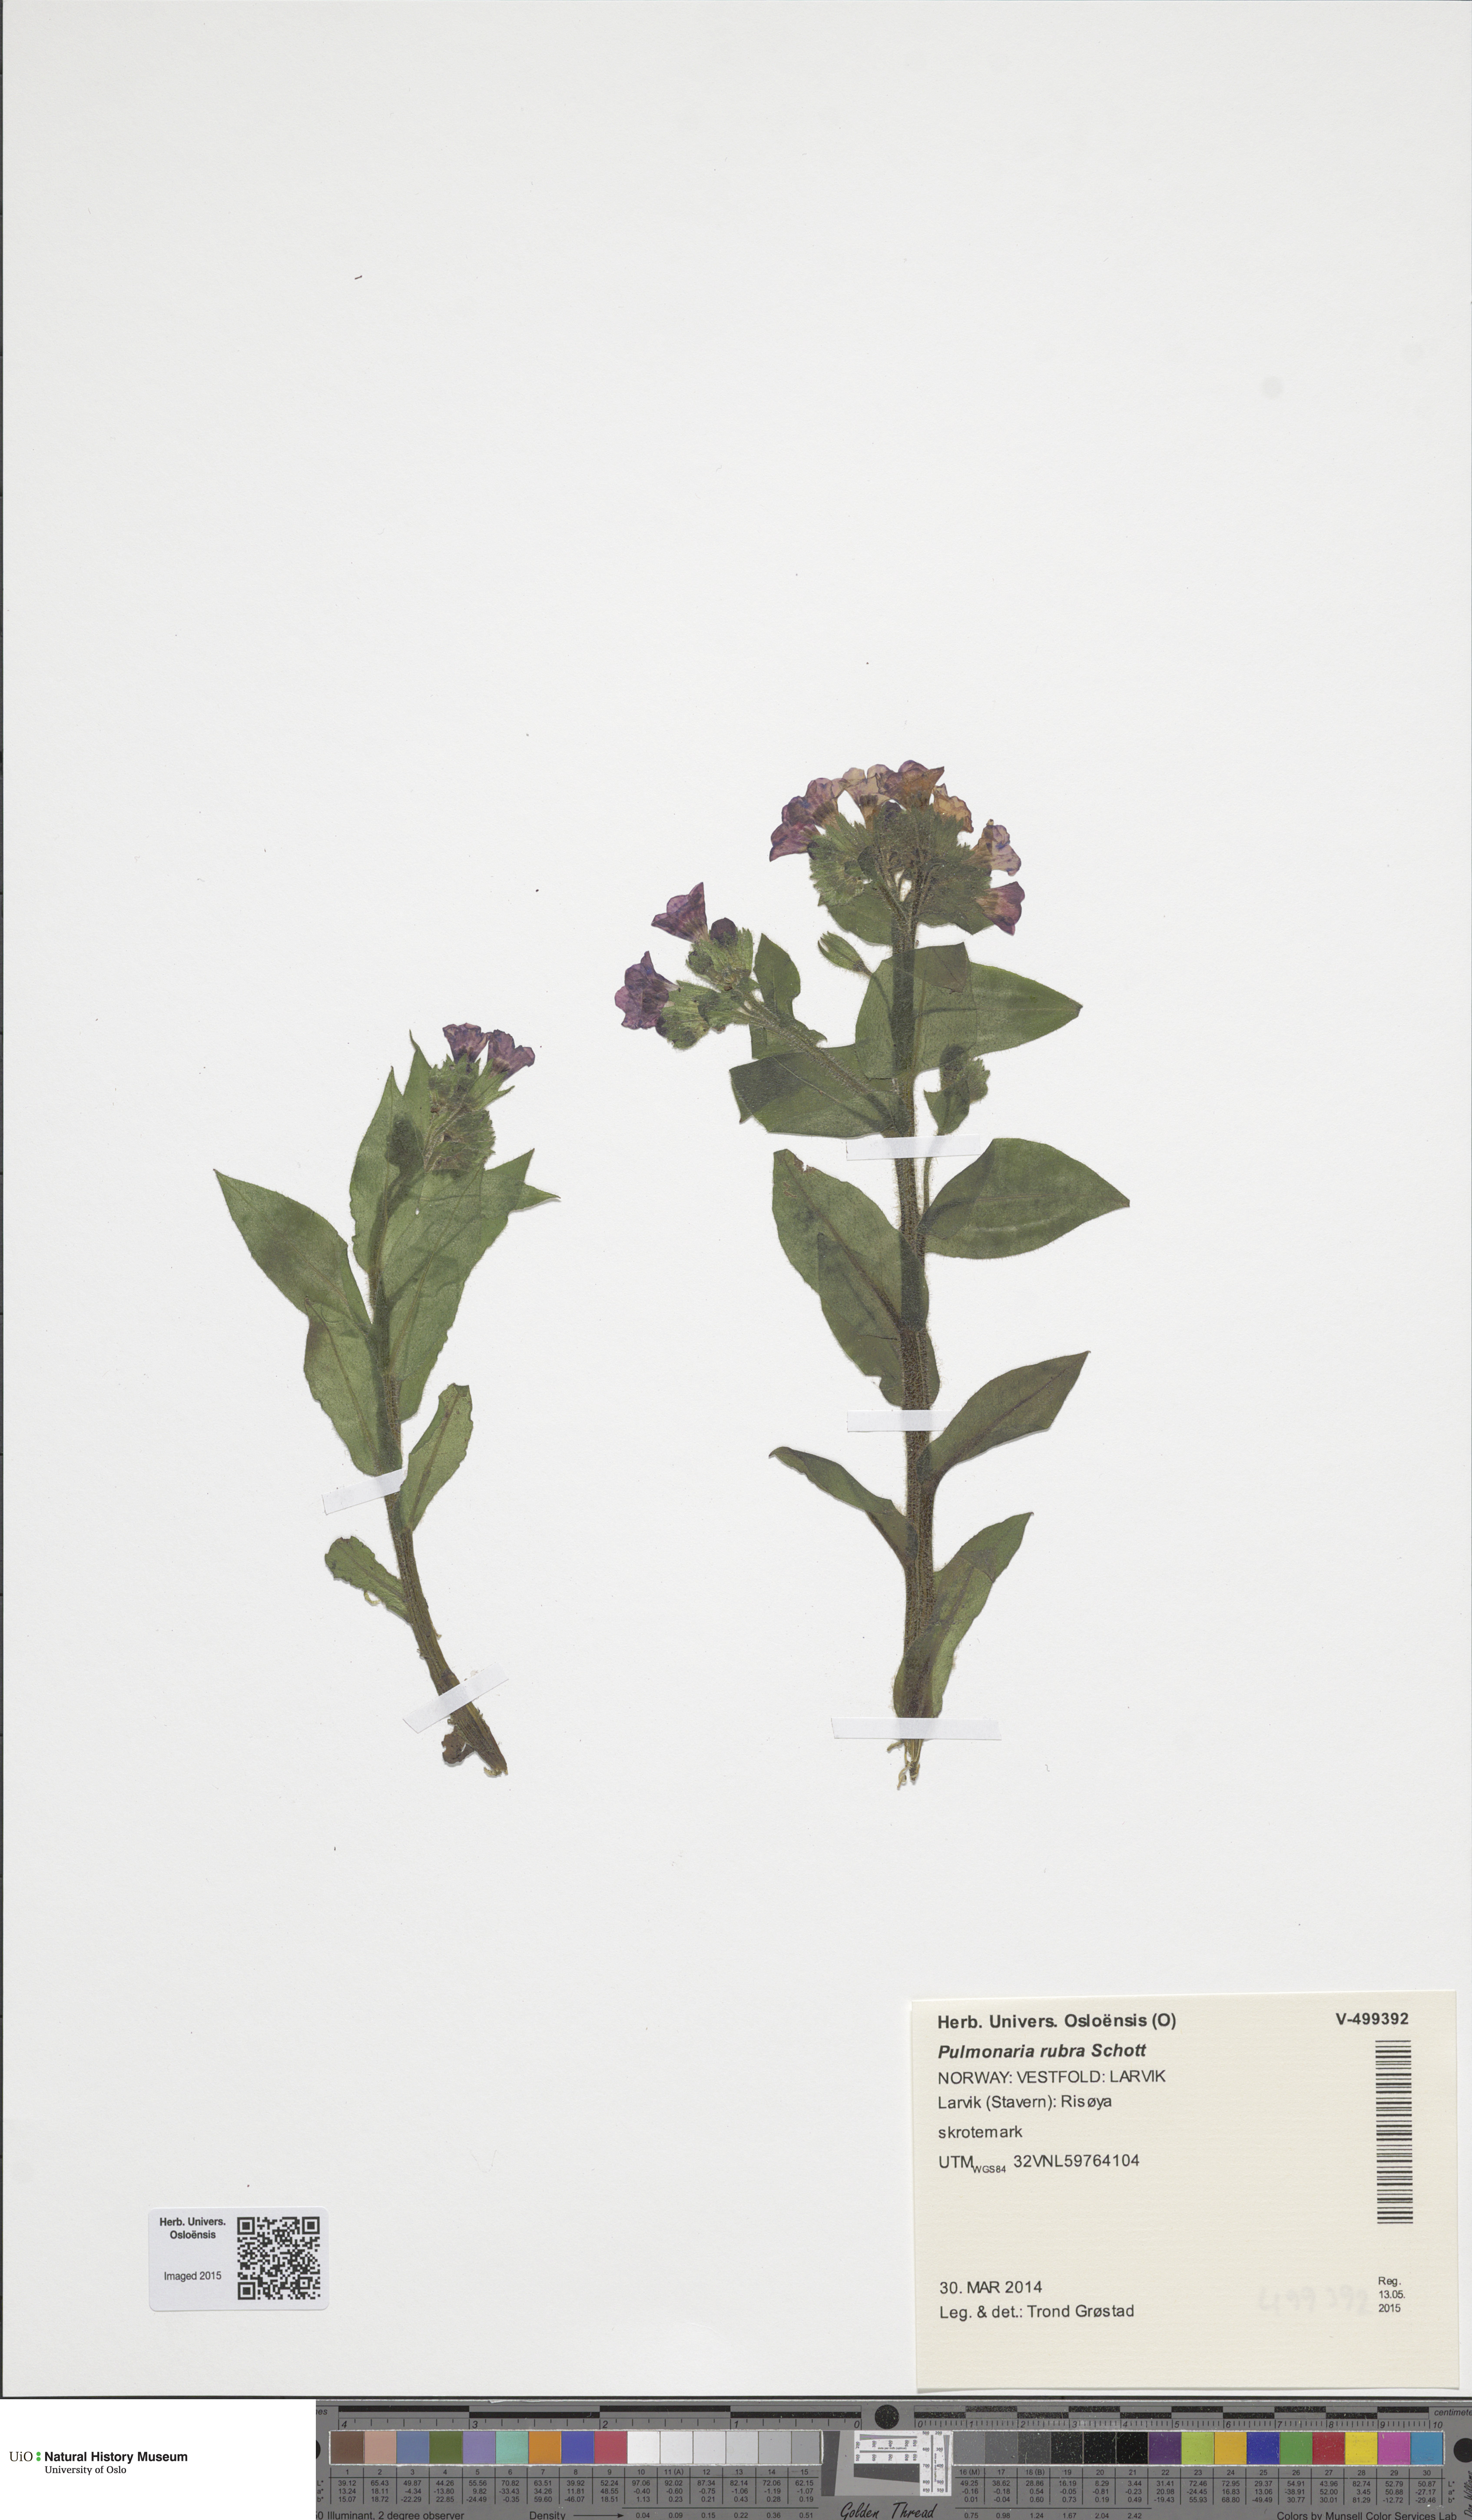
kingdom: Plantae
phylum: Tracheophyta
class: Magnoliopsida
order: Boraginales
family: Boraginaceae
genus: Pulmonaria
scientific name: Pulmonaria rubra
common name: Red lungwort
